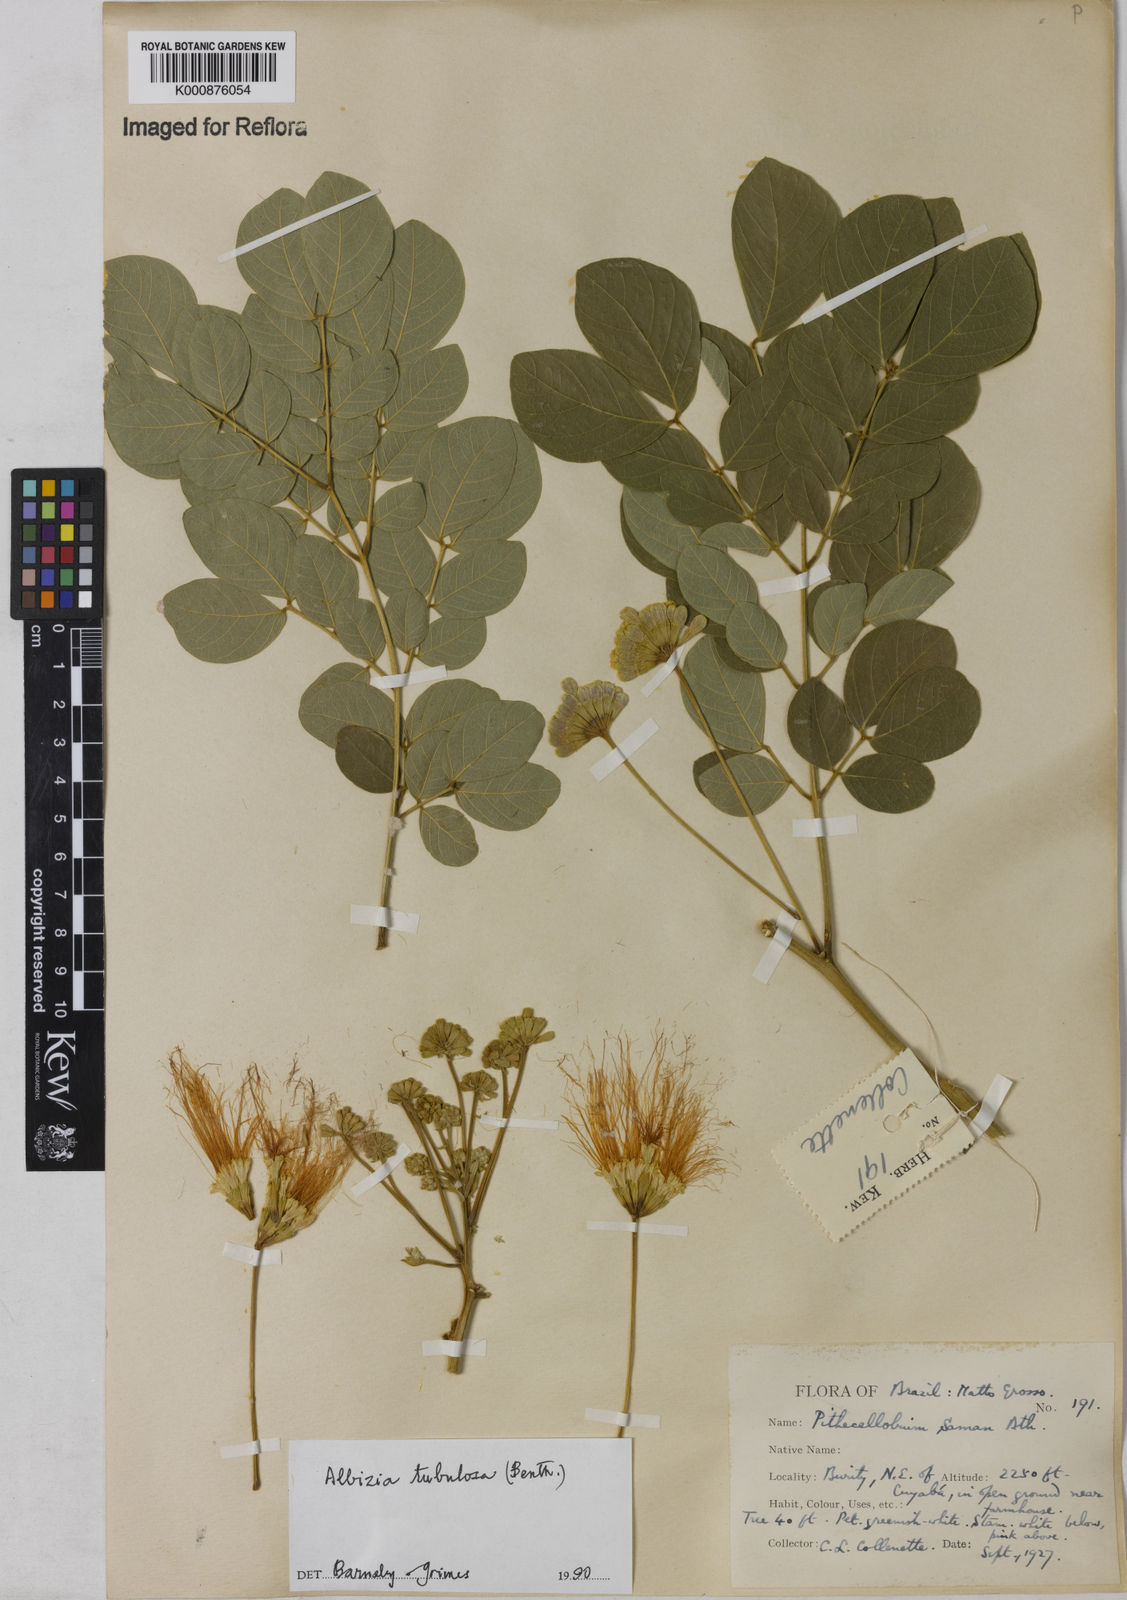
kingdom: Plantae
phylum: Tracheophyta
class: Magnoliopsida
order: Fabales
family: Fabaceae
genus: Samanea
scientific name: Samanea tubulosa
